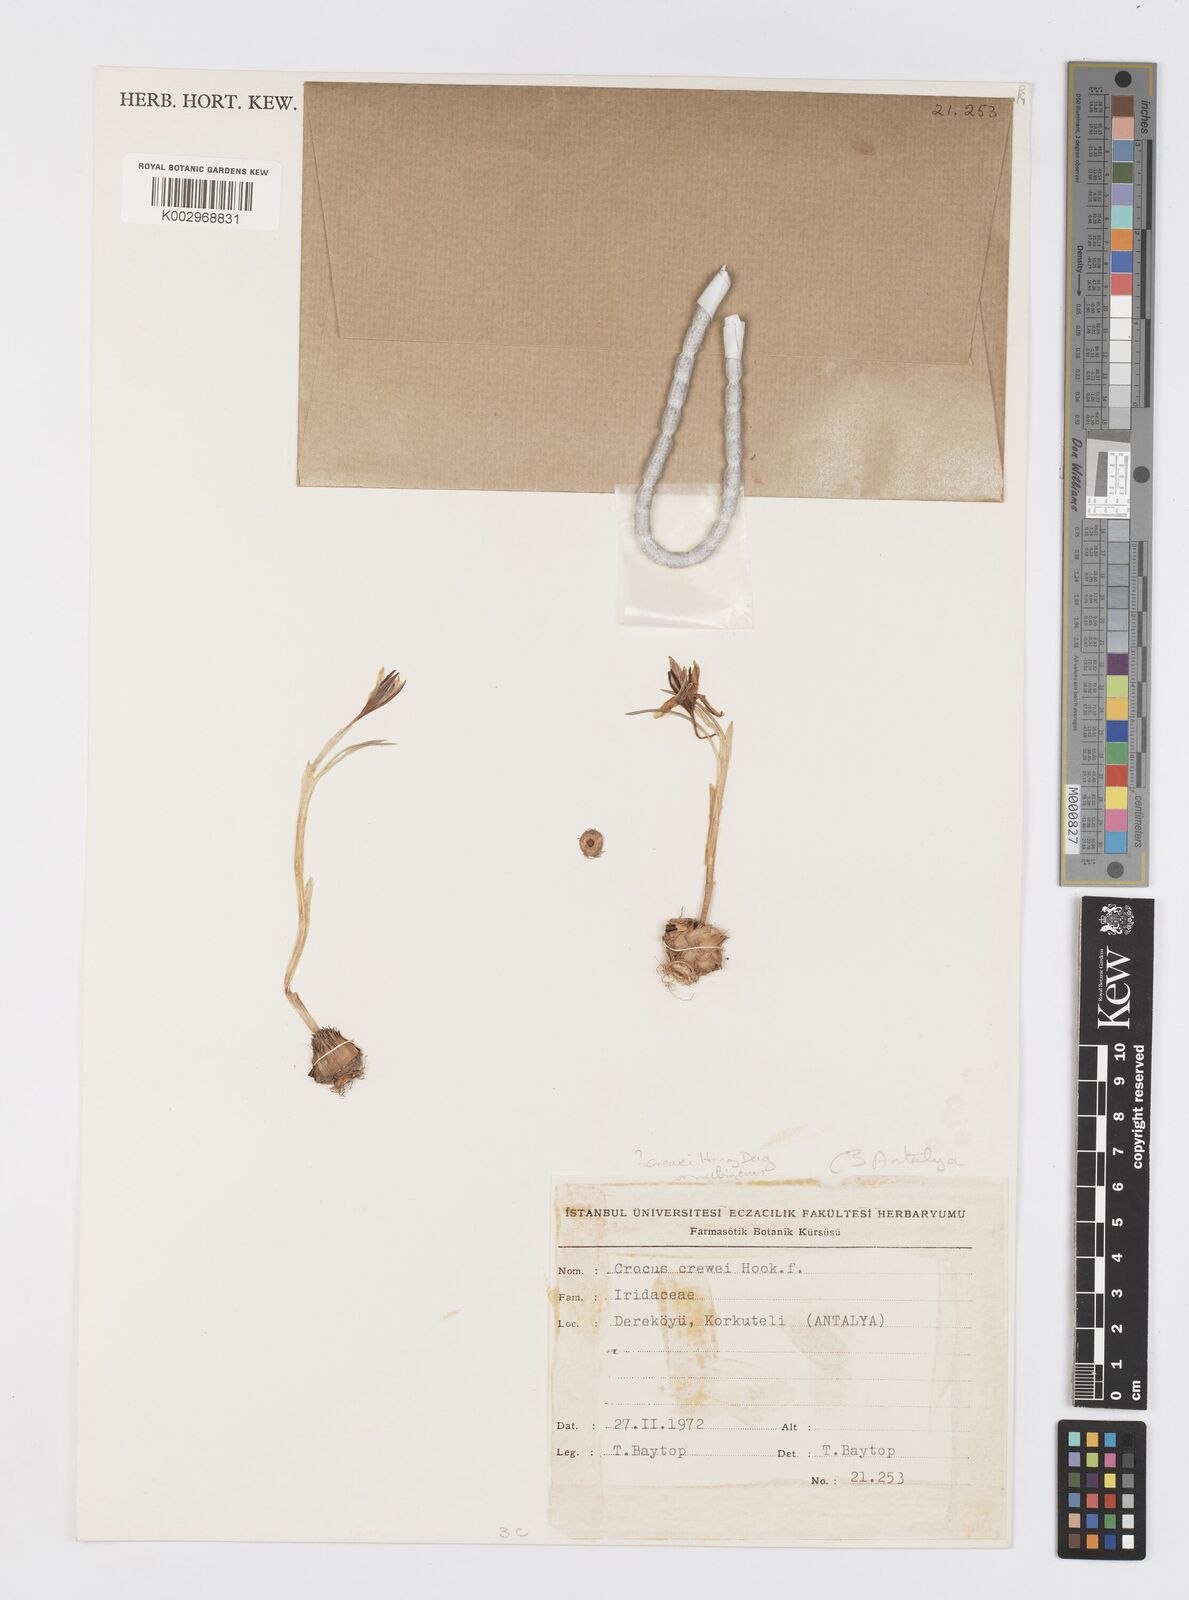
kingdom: Plantae
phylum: Tracheophyta
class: Liliopsida
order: Asparagales
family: Iridaceae
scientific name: Iridaceae
